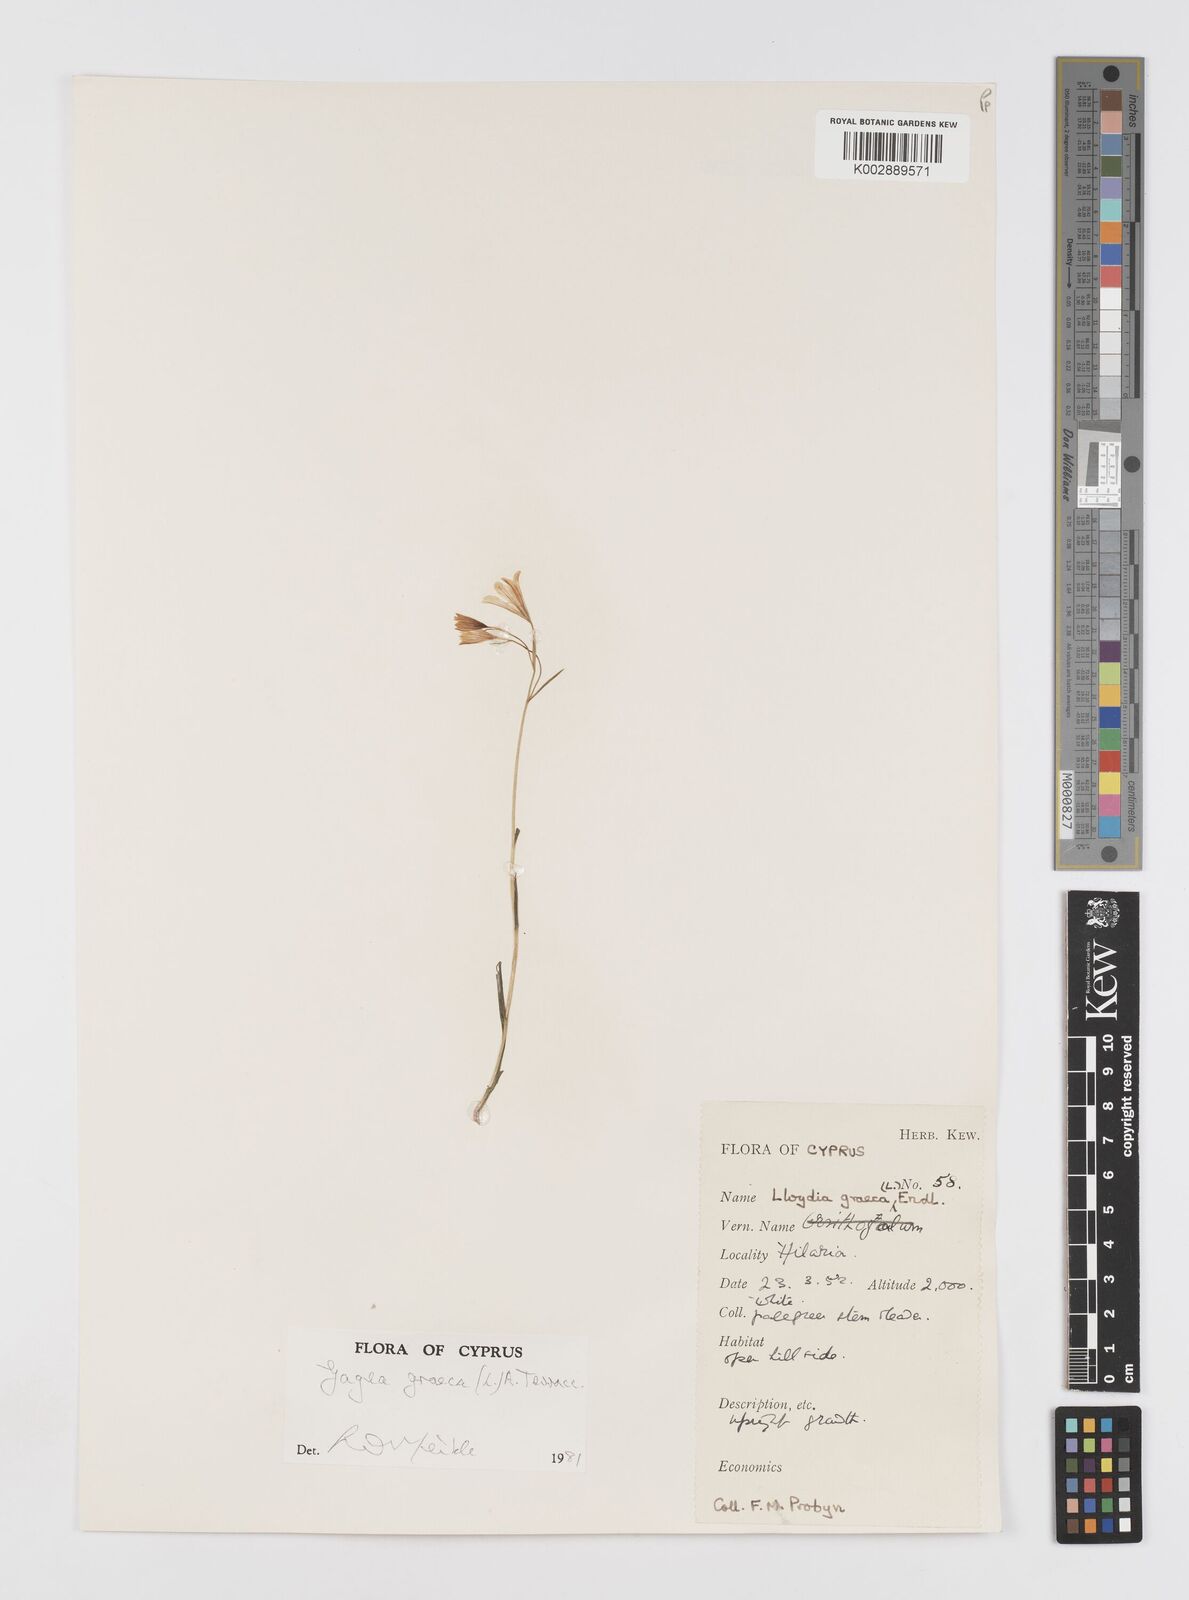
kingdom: Plantae
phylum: Tracheophyta
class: Liliopsida
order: Liliales
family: Liliaceae
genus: Gagea
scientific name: Gagea graeca
